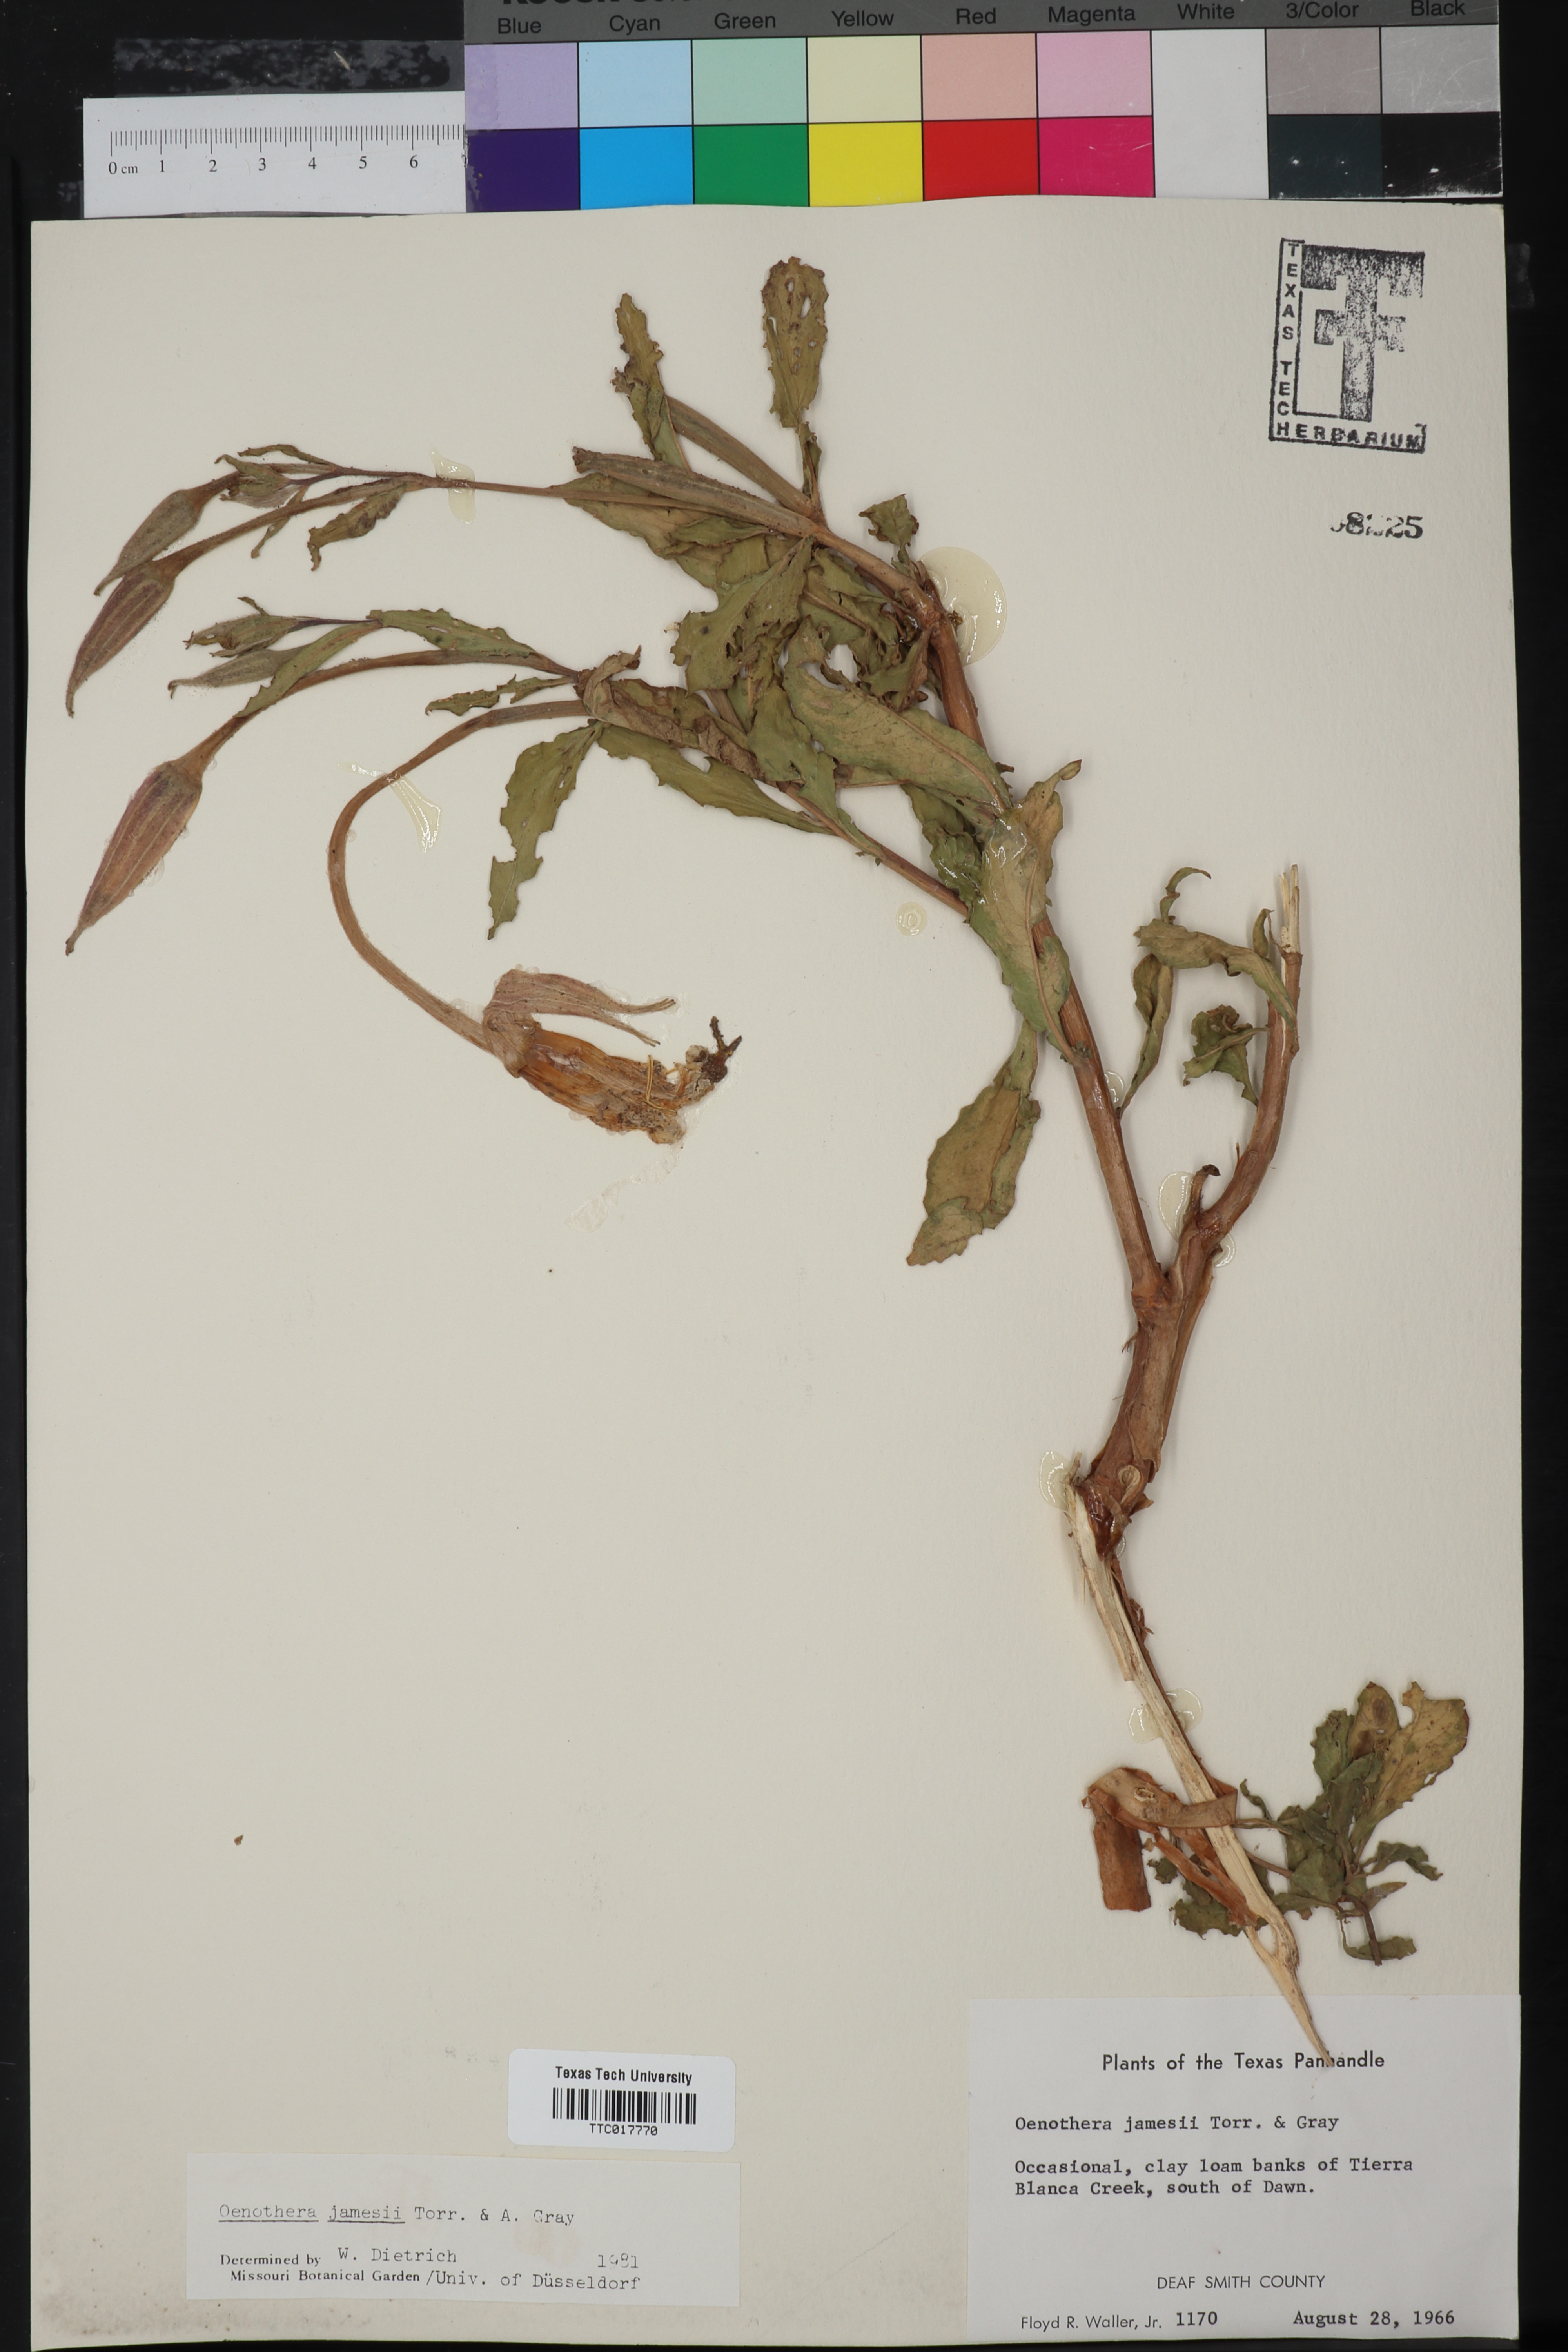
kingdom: Plantae
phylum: Tracheophyta
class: Magnoliopsida
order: Myrtales
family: Onagraceae
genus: Oenothera
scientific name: Oenothera jamesii
